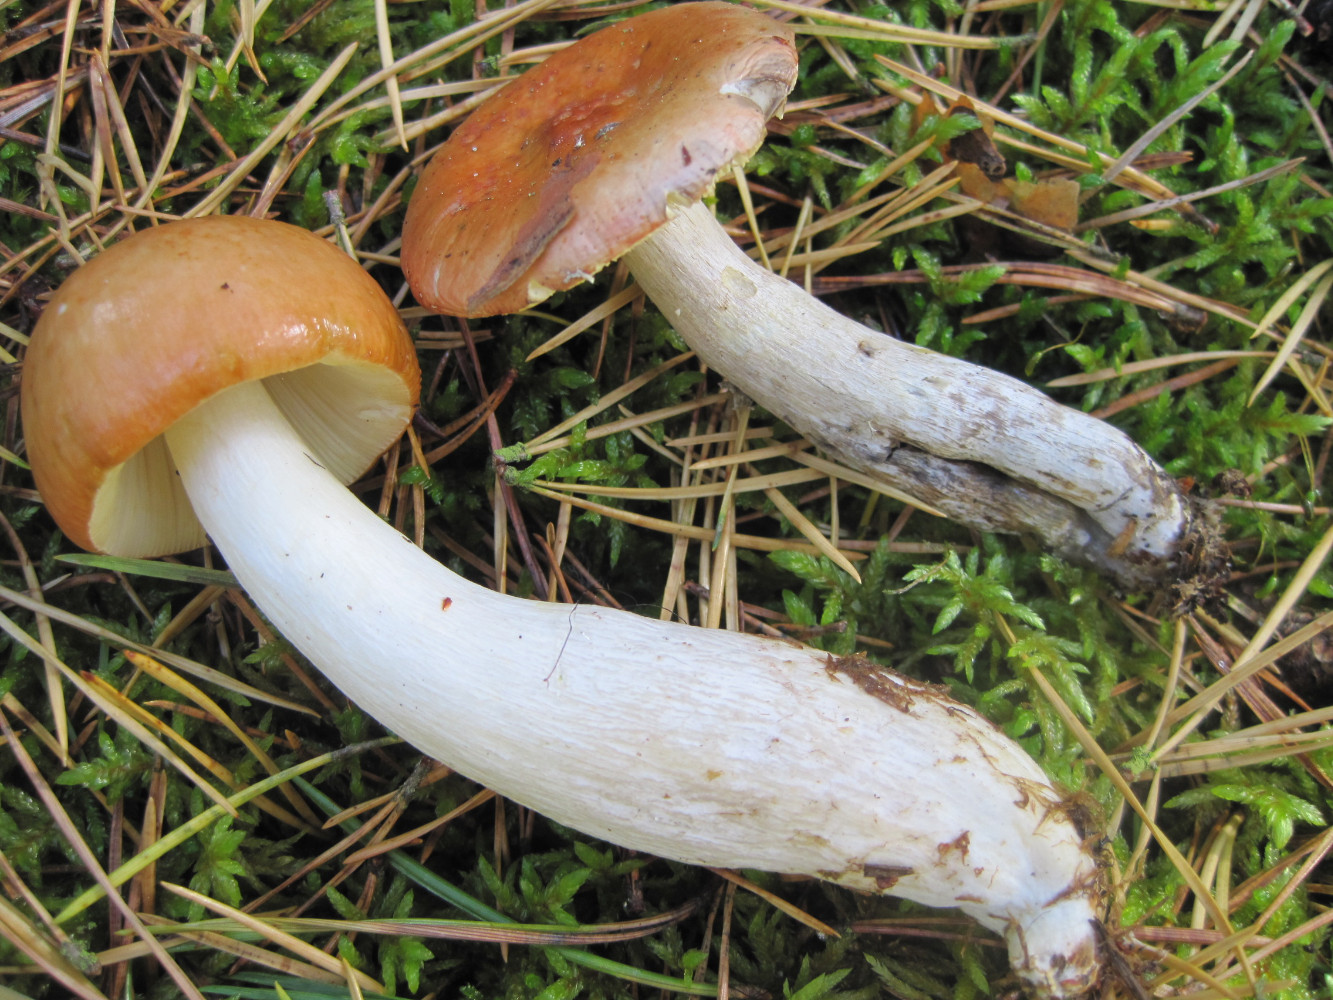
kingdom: Fungi
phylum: Basidiomycota
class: Agaricomycetes
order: Russulales
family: Russulaceae
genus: Russula
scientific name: Russula decolorans
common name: afblegende skørhat
